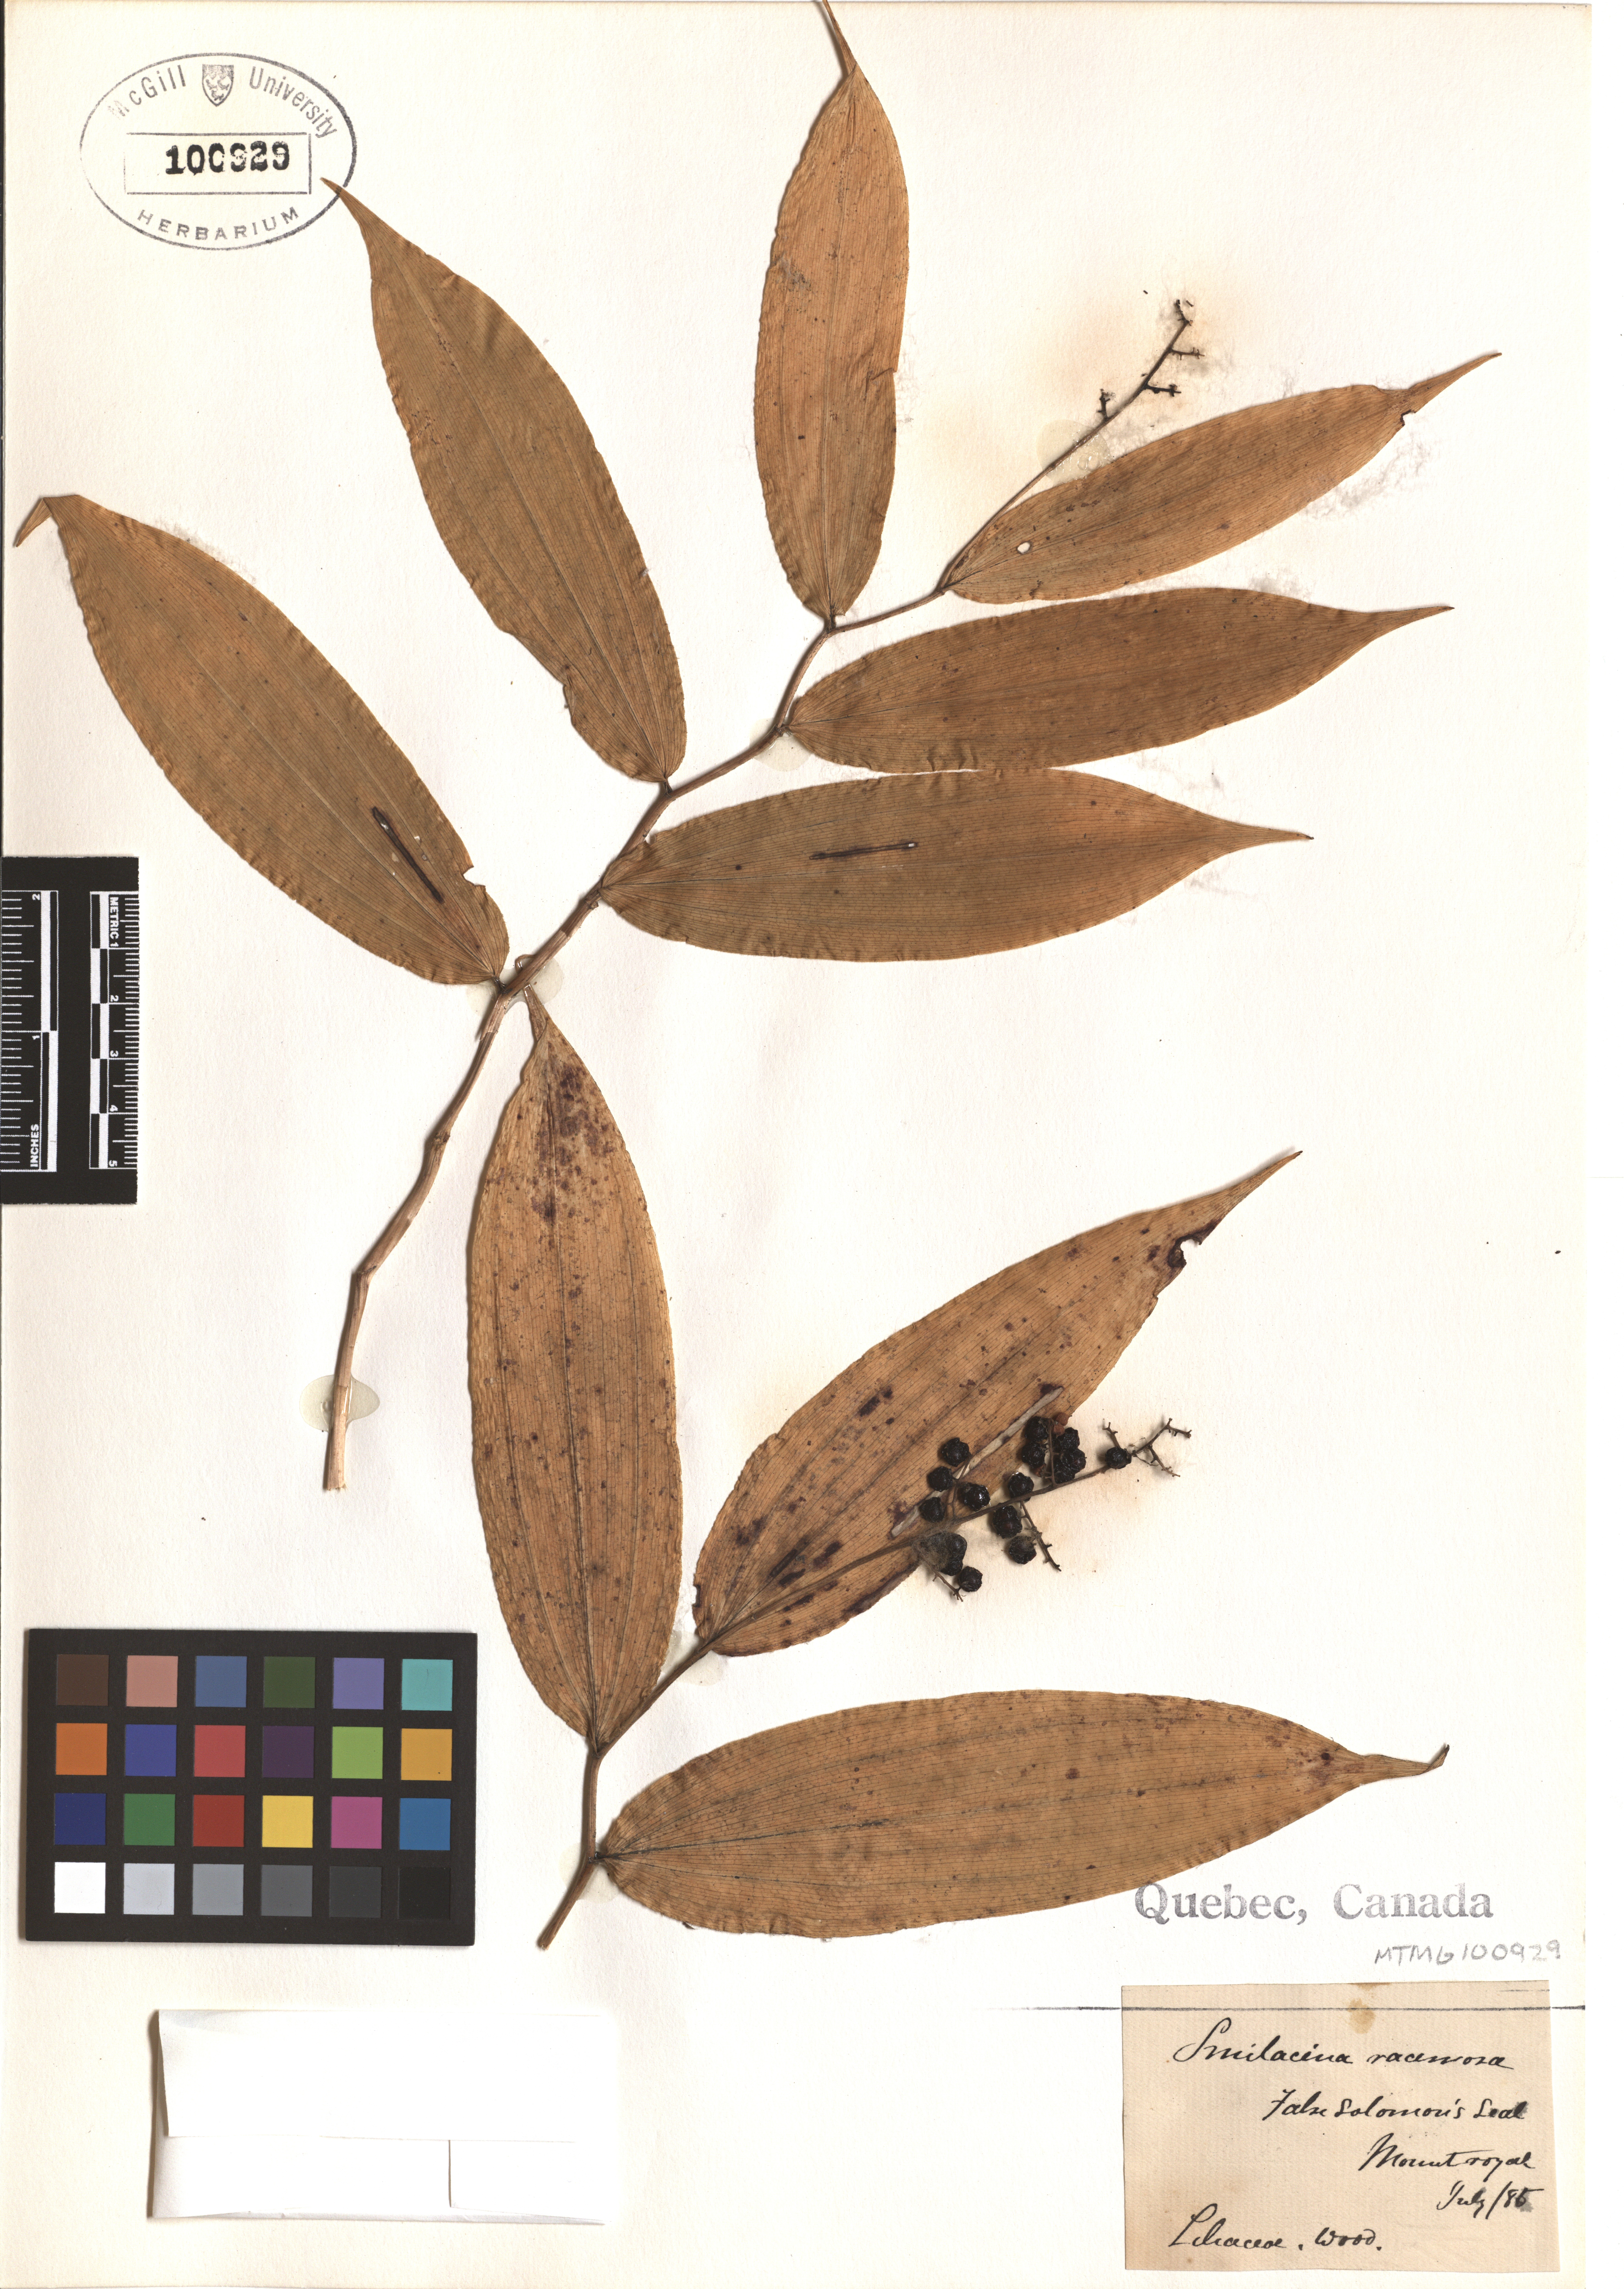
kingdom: Plantae
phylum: Tracheophyta
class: Liliopsida
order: Asparagales
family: Asparagaceae
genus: Maianthemum
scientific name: Maianthemum racemosum
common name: False spikenard
